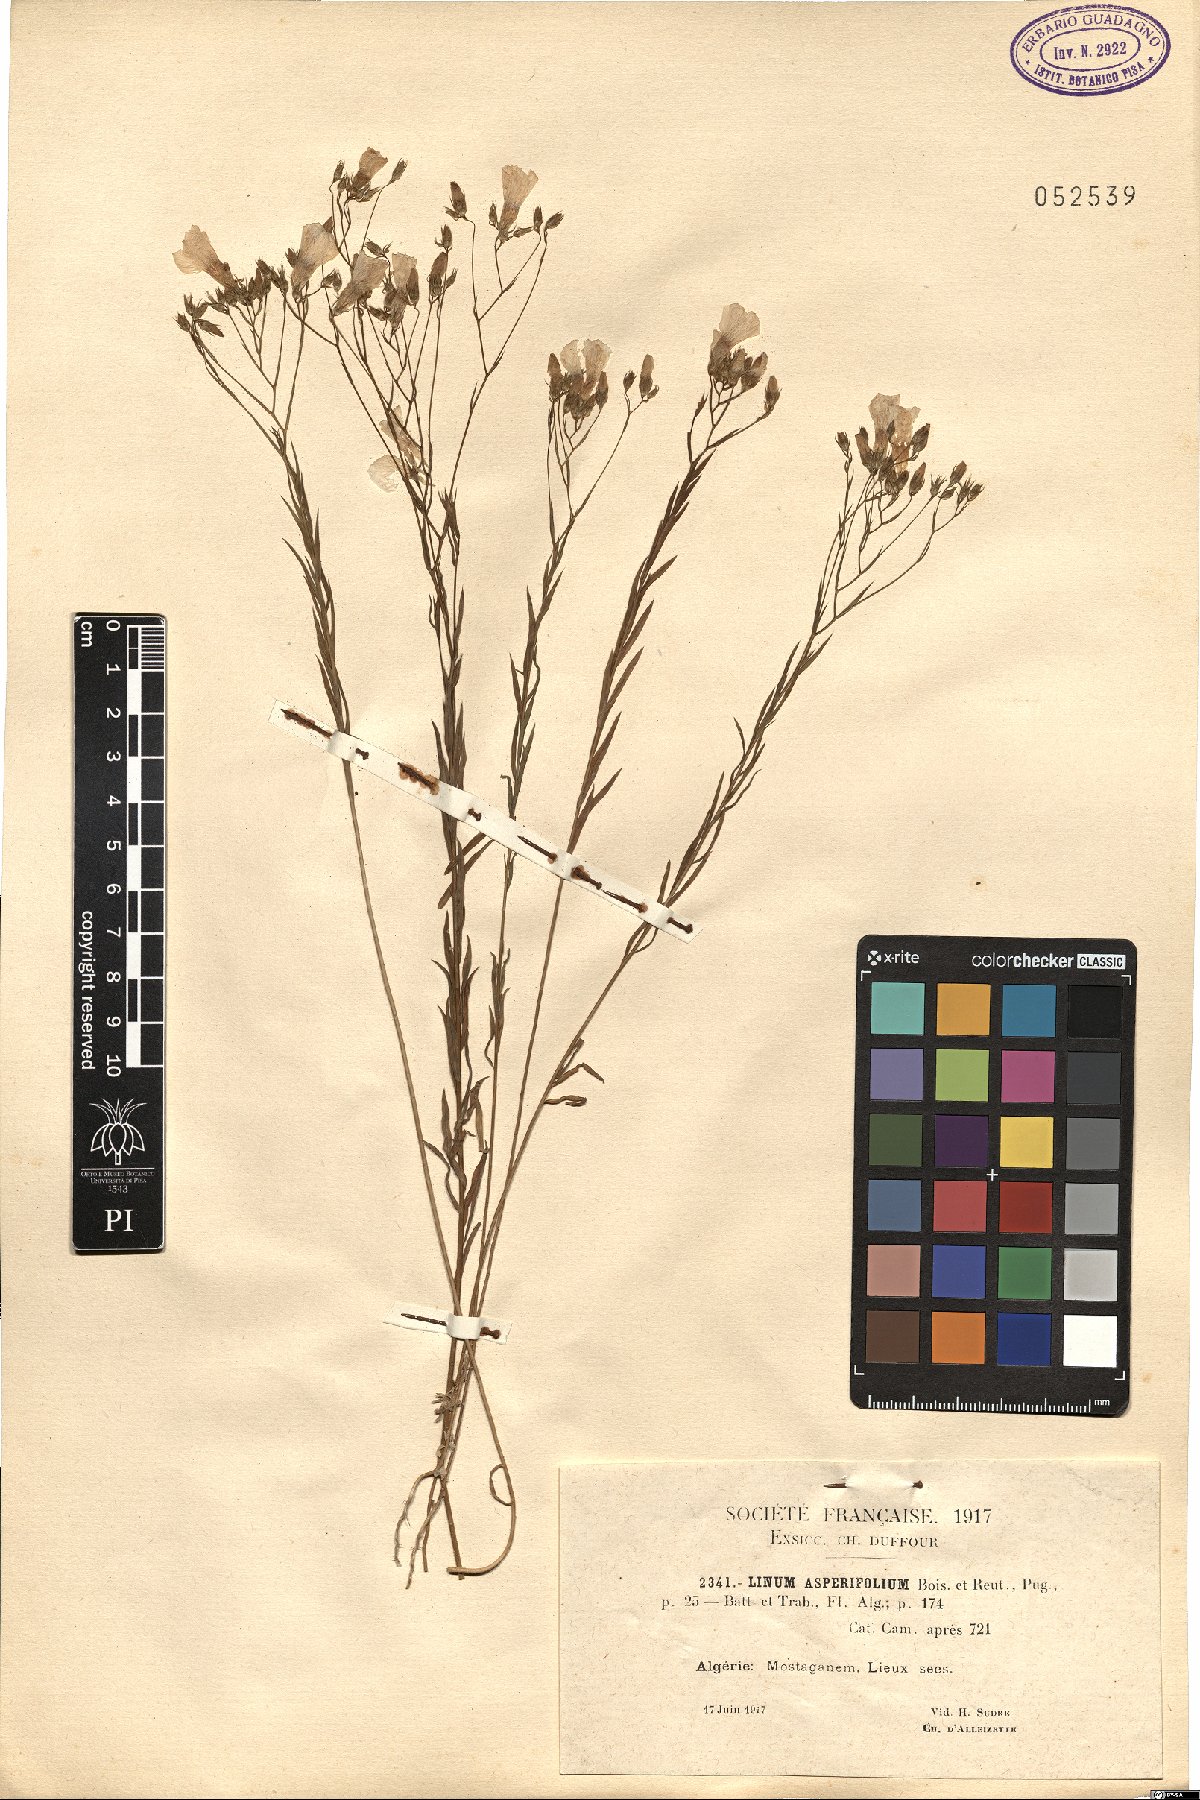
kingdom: Plantae
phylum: Tracheophyta
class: Magnoliopsida
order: Malpighiales
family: Linaceae
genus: Linum
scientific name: Linum corymbiferum
